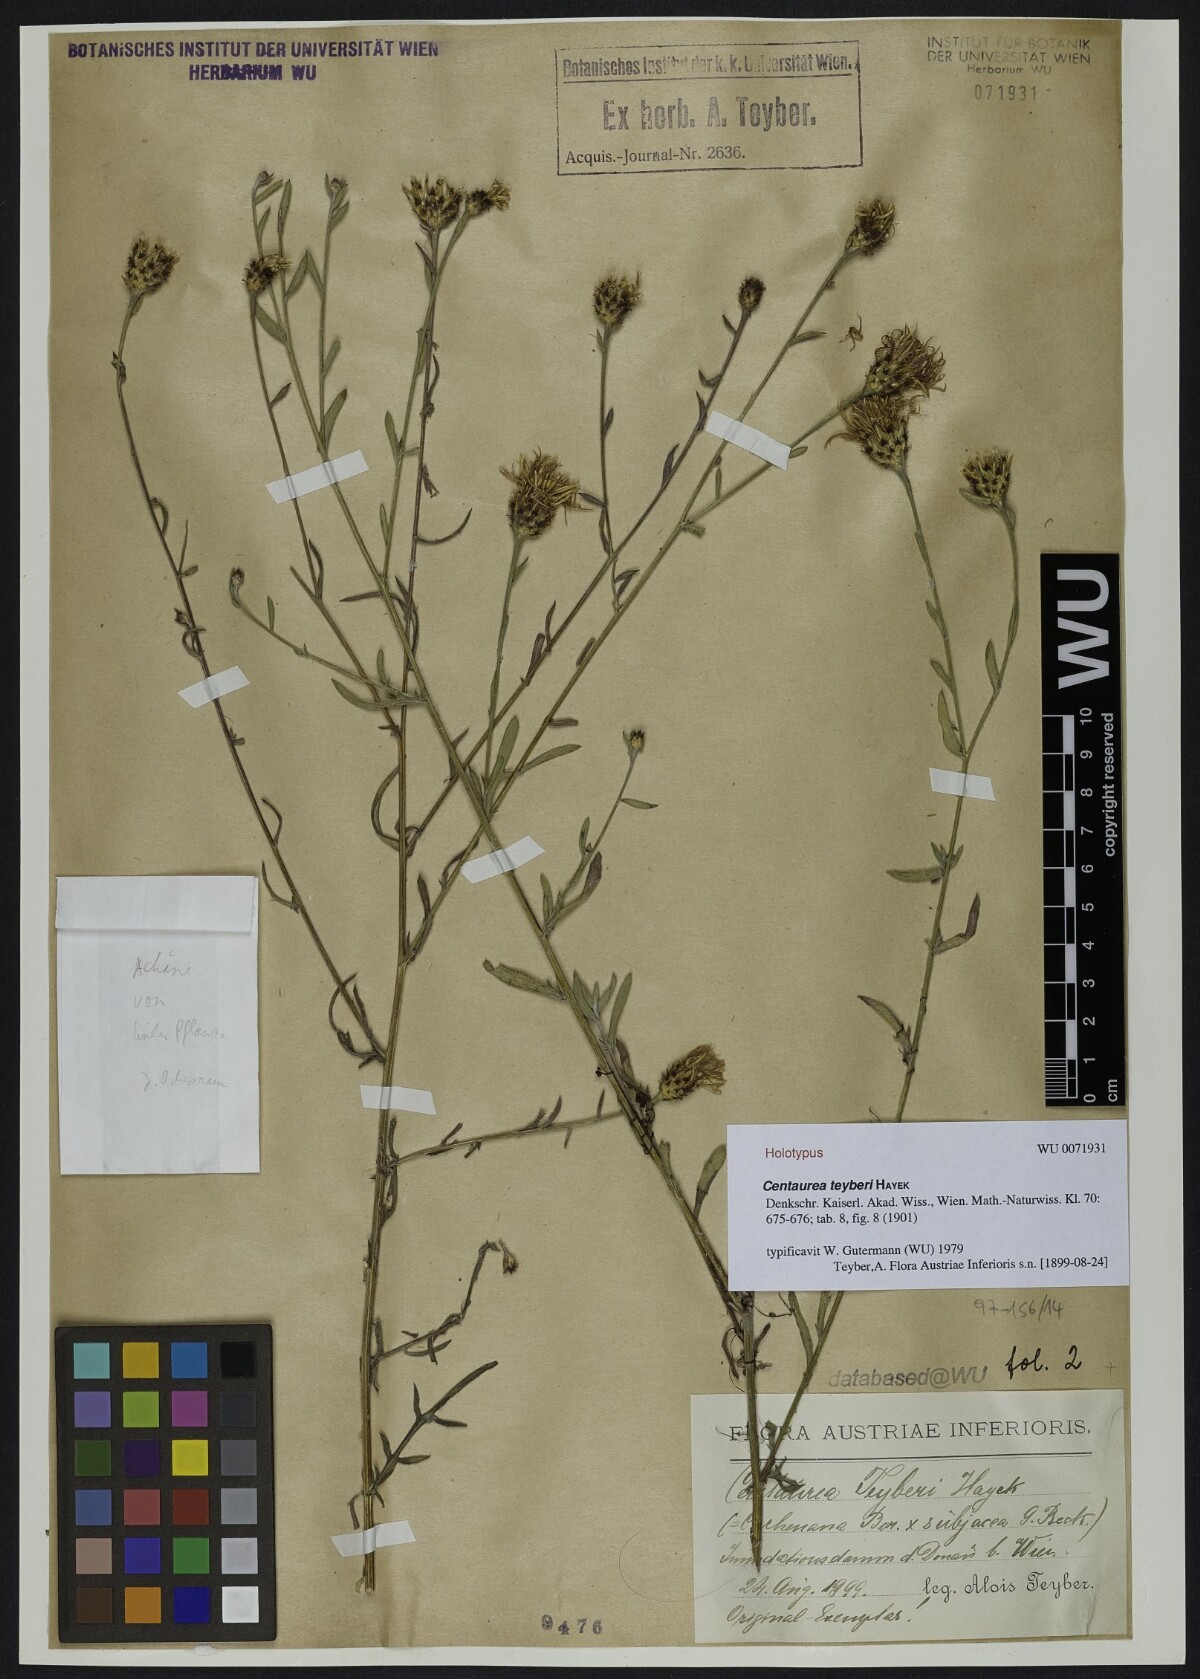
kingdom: Plantae
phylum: Tracheophyta
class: Magnoliopsida
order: Asterales
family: Asteraceae
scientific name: Asteraceae
